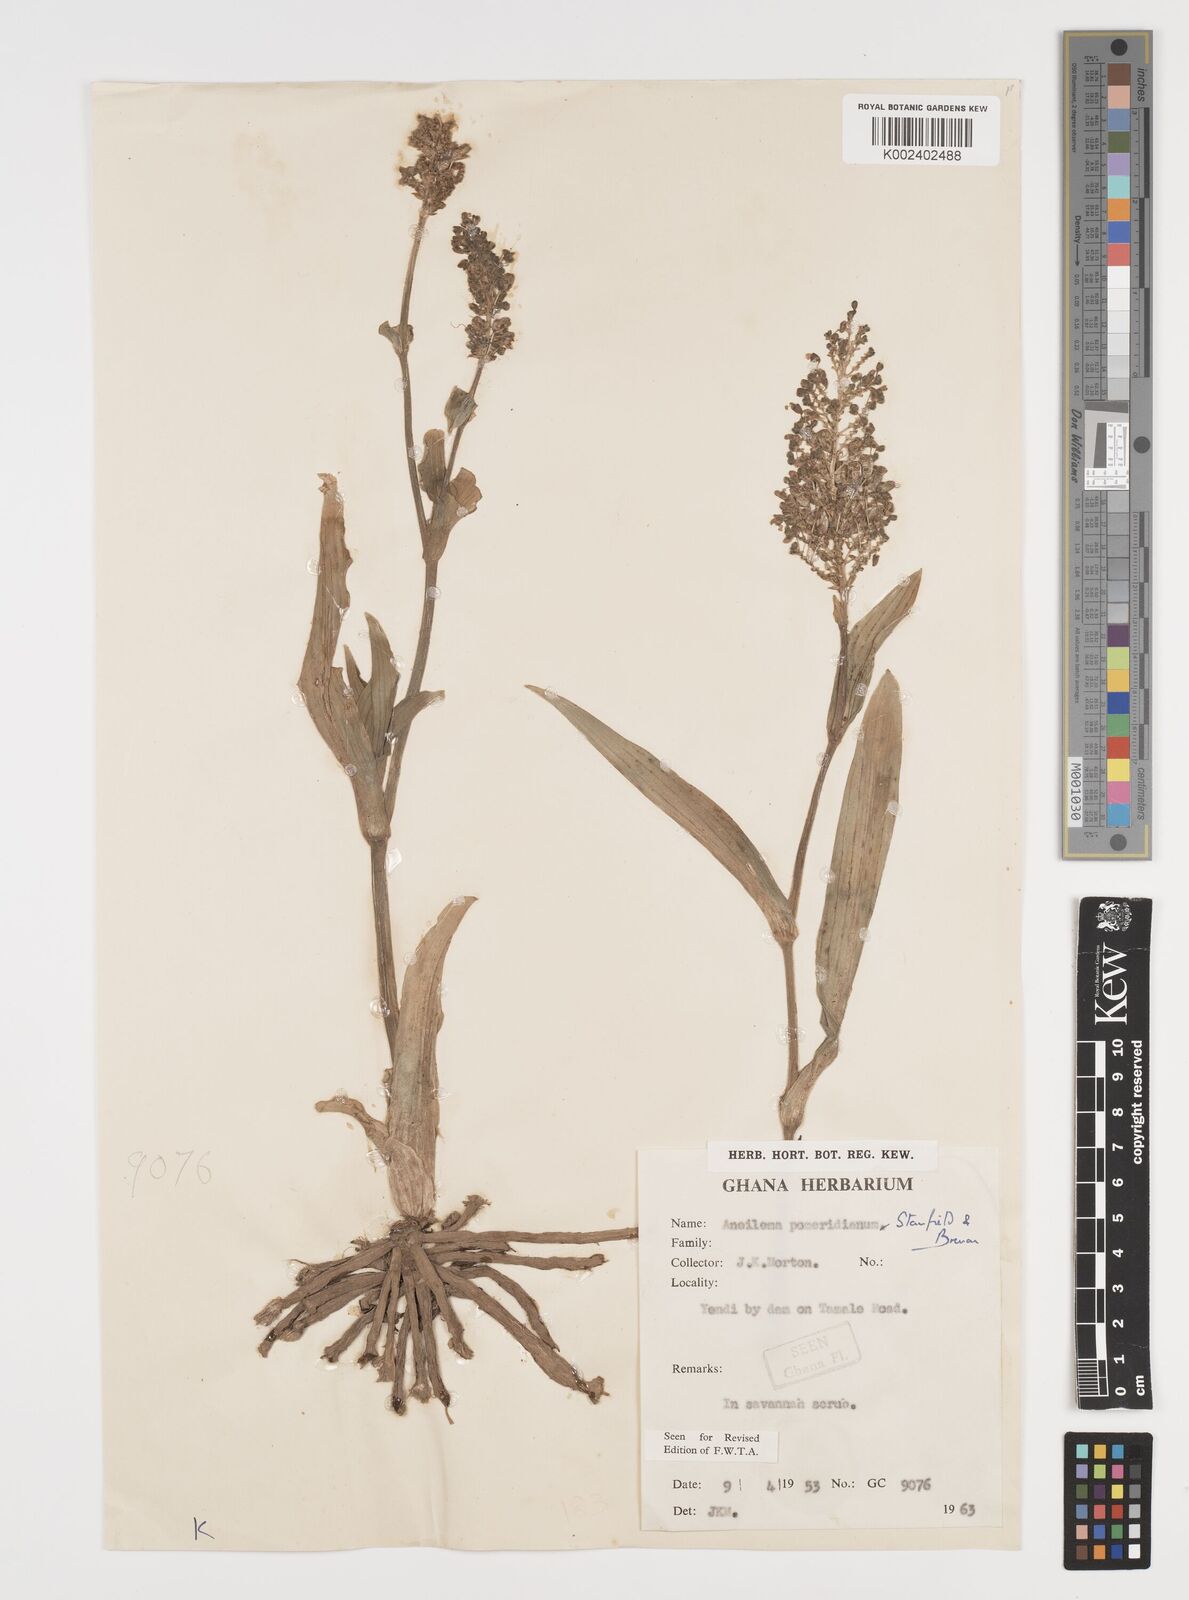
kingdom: Plantae
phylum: Tracheophyta
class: Liliopsida
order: Commelinales
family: Commelinaceae
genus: Aneilema
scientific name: Aneilema pomeridianum
